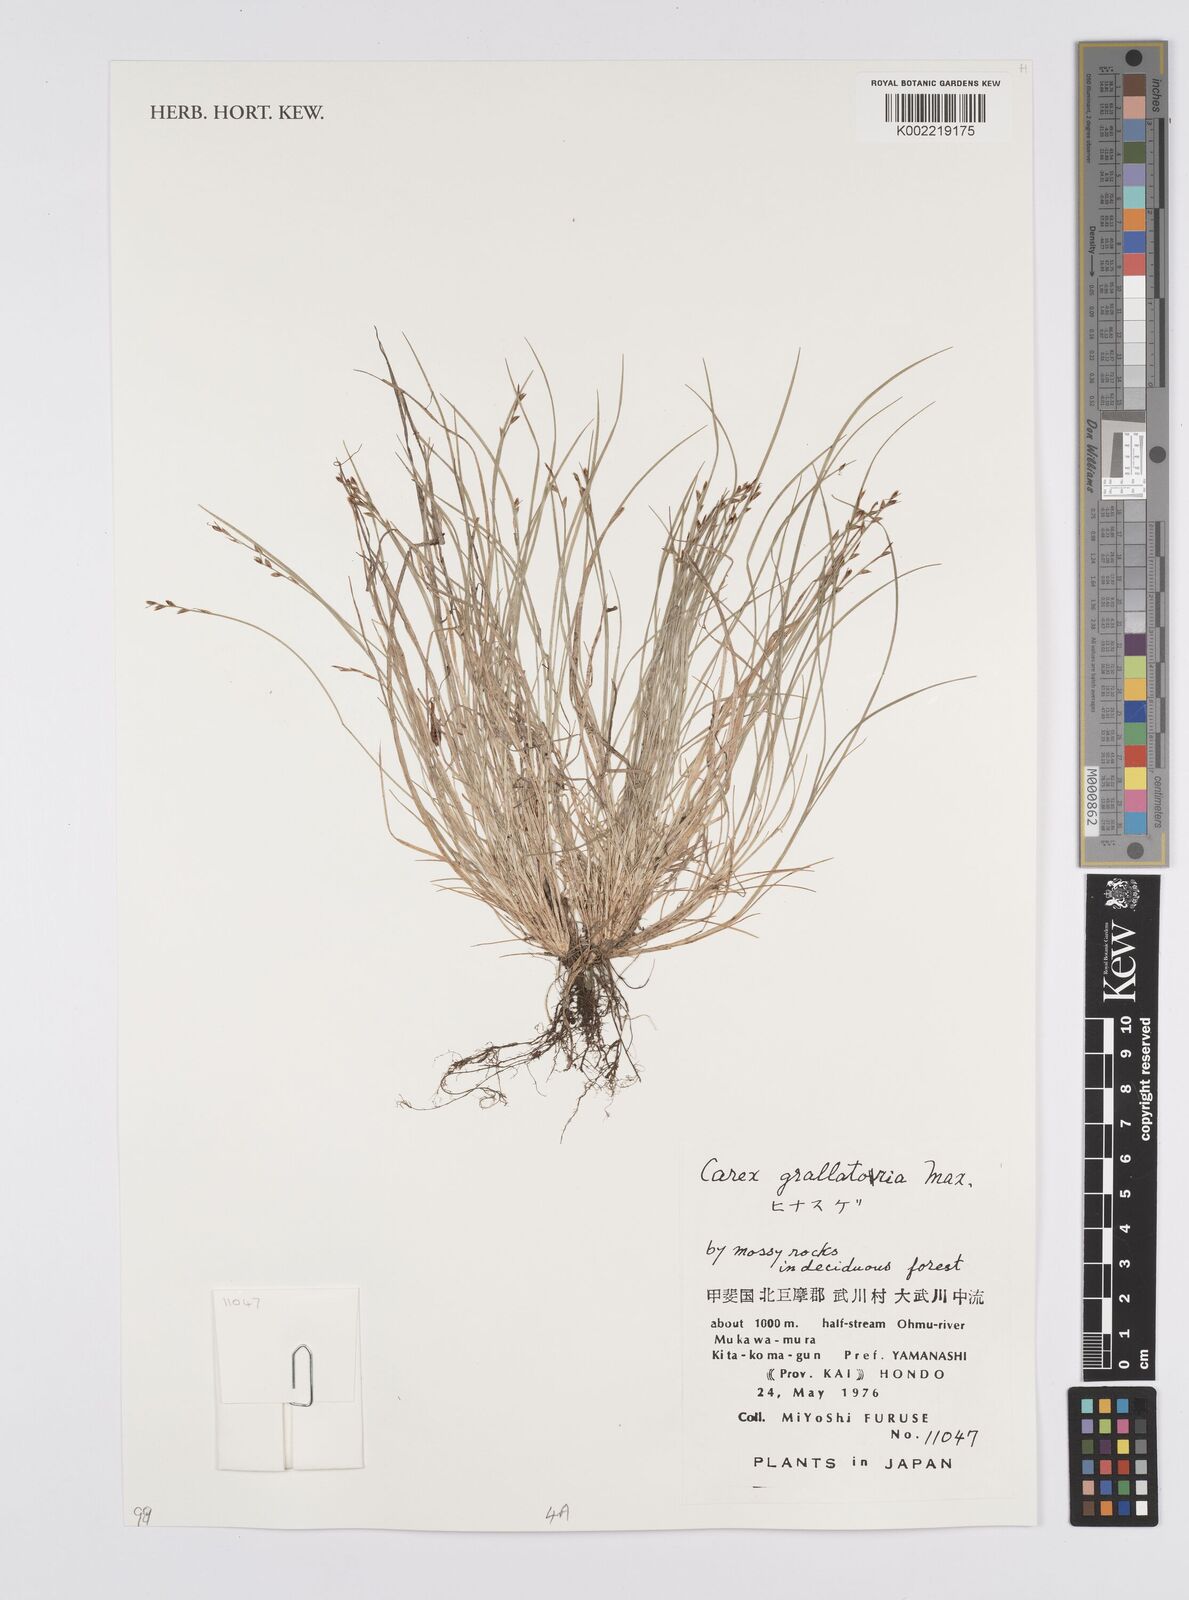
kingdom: Plantae
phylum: Tracheophyta
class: Liliopsida
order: Poales
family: Cyperaceae
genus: Carex
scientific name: Carex grallatoria
